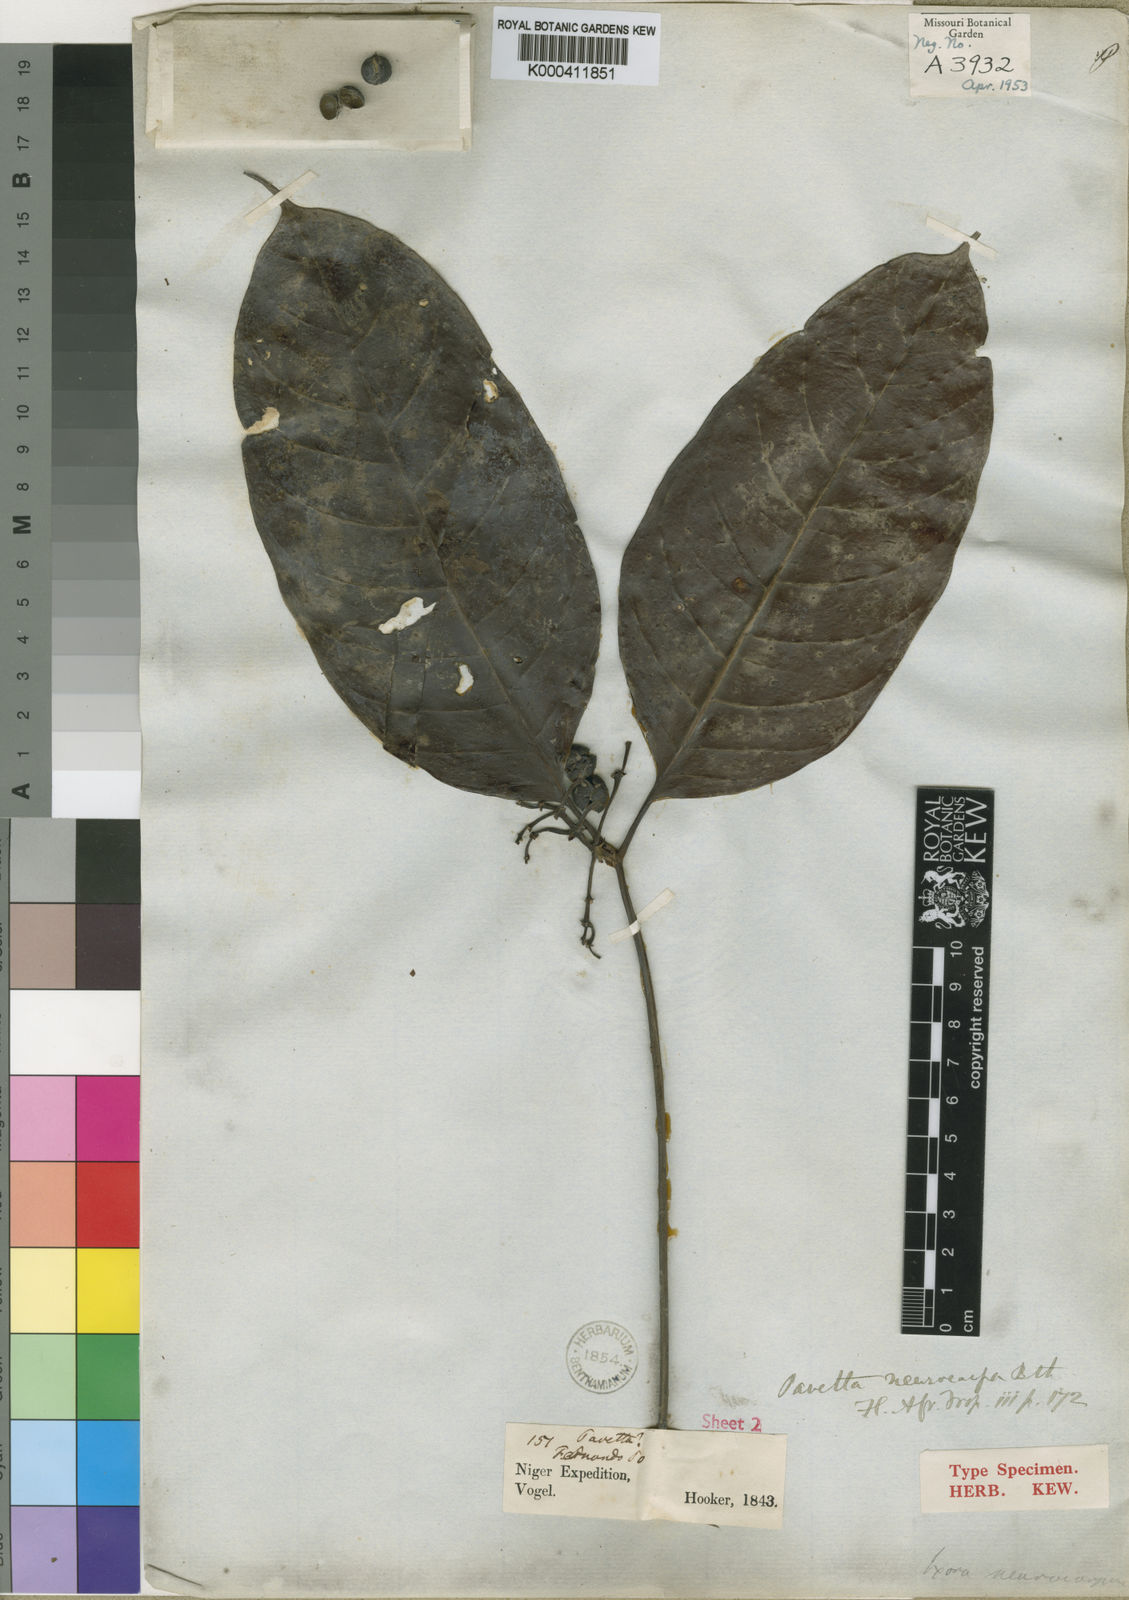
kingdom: Plantae
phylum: Tracheophyta
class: Magnoliopsida
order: Gentianales
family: Rubiaceae
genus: Pavetta
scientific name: Pavetta neurocarpa
